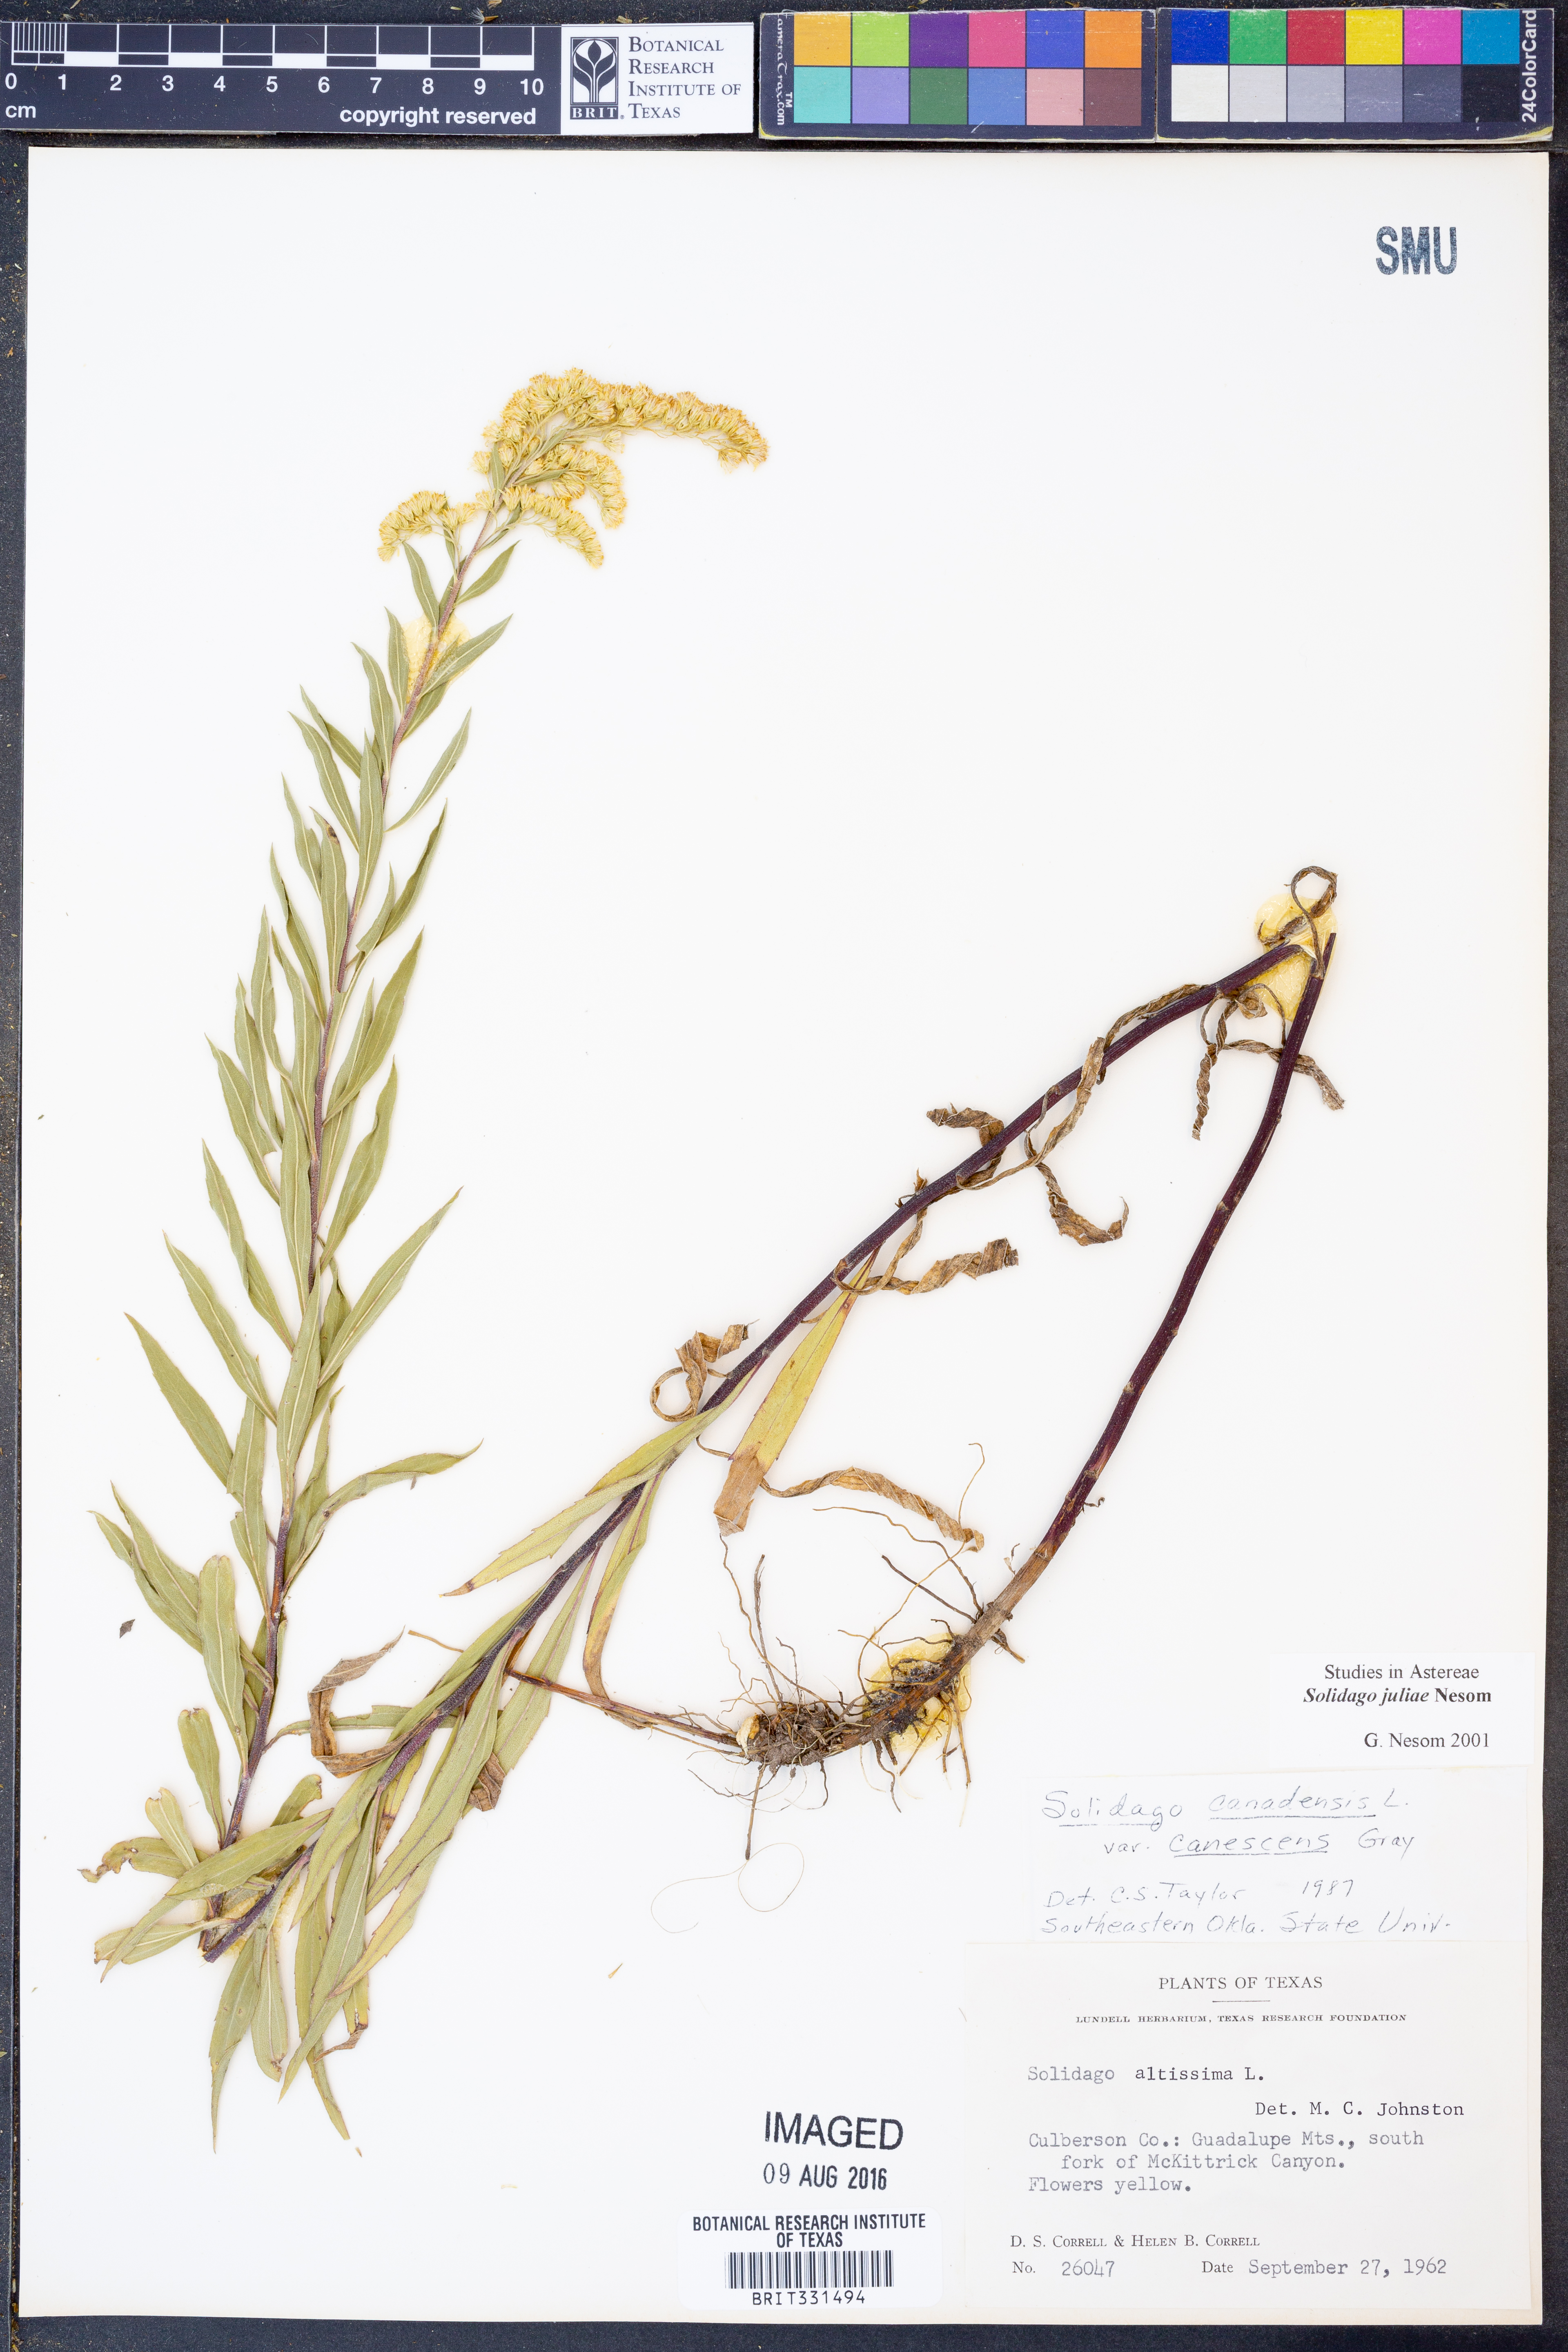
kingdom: Plantae
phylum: Tracheophyta
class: Magnoliopsida
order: Asterales
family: Asteraceae
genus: Solidago
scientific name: Solidago juliae
